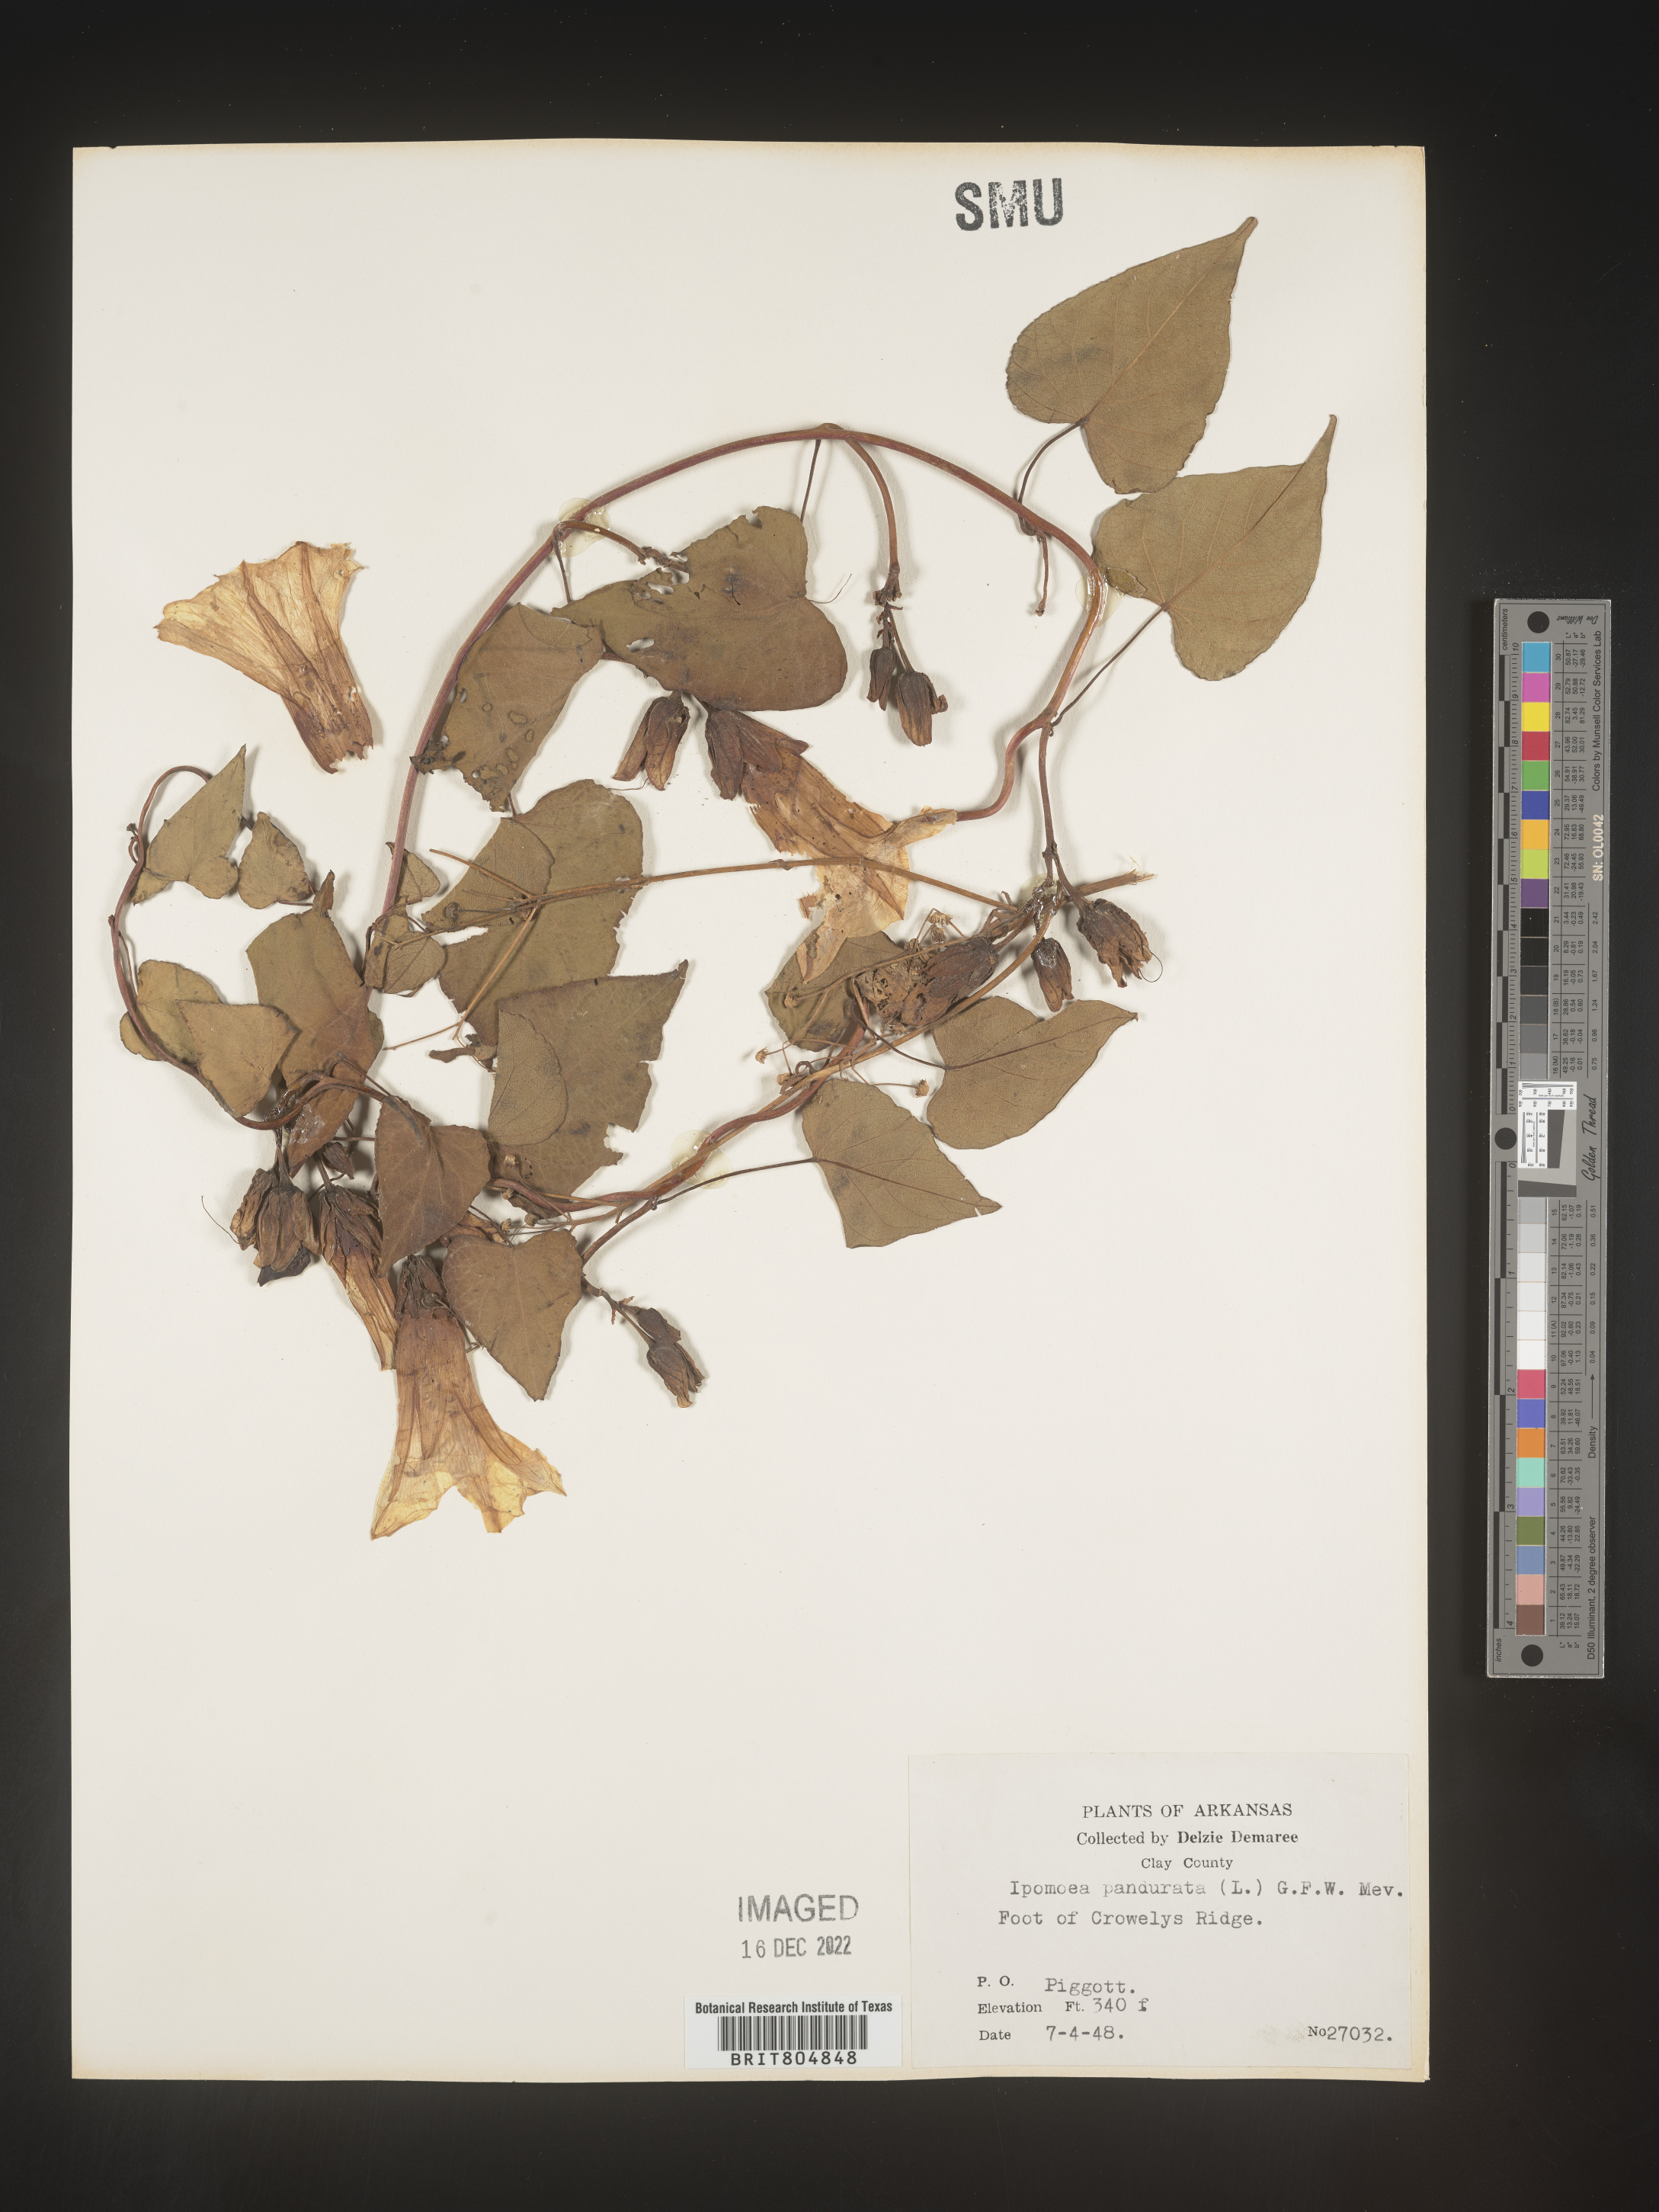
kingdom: Plantae
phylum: Tracheophyta
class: Magnoliopsida
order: Solanales
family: Convolvulaceae
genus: Ipomoea
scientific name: Ipomoea pandurata
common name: Man-of-the-earth
